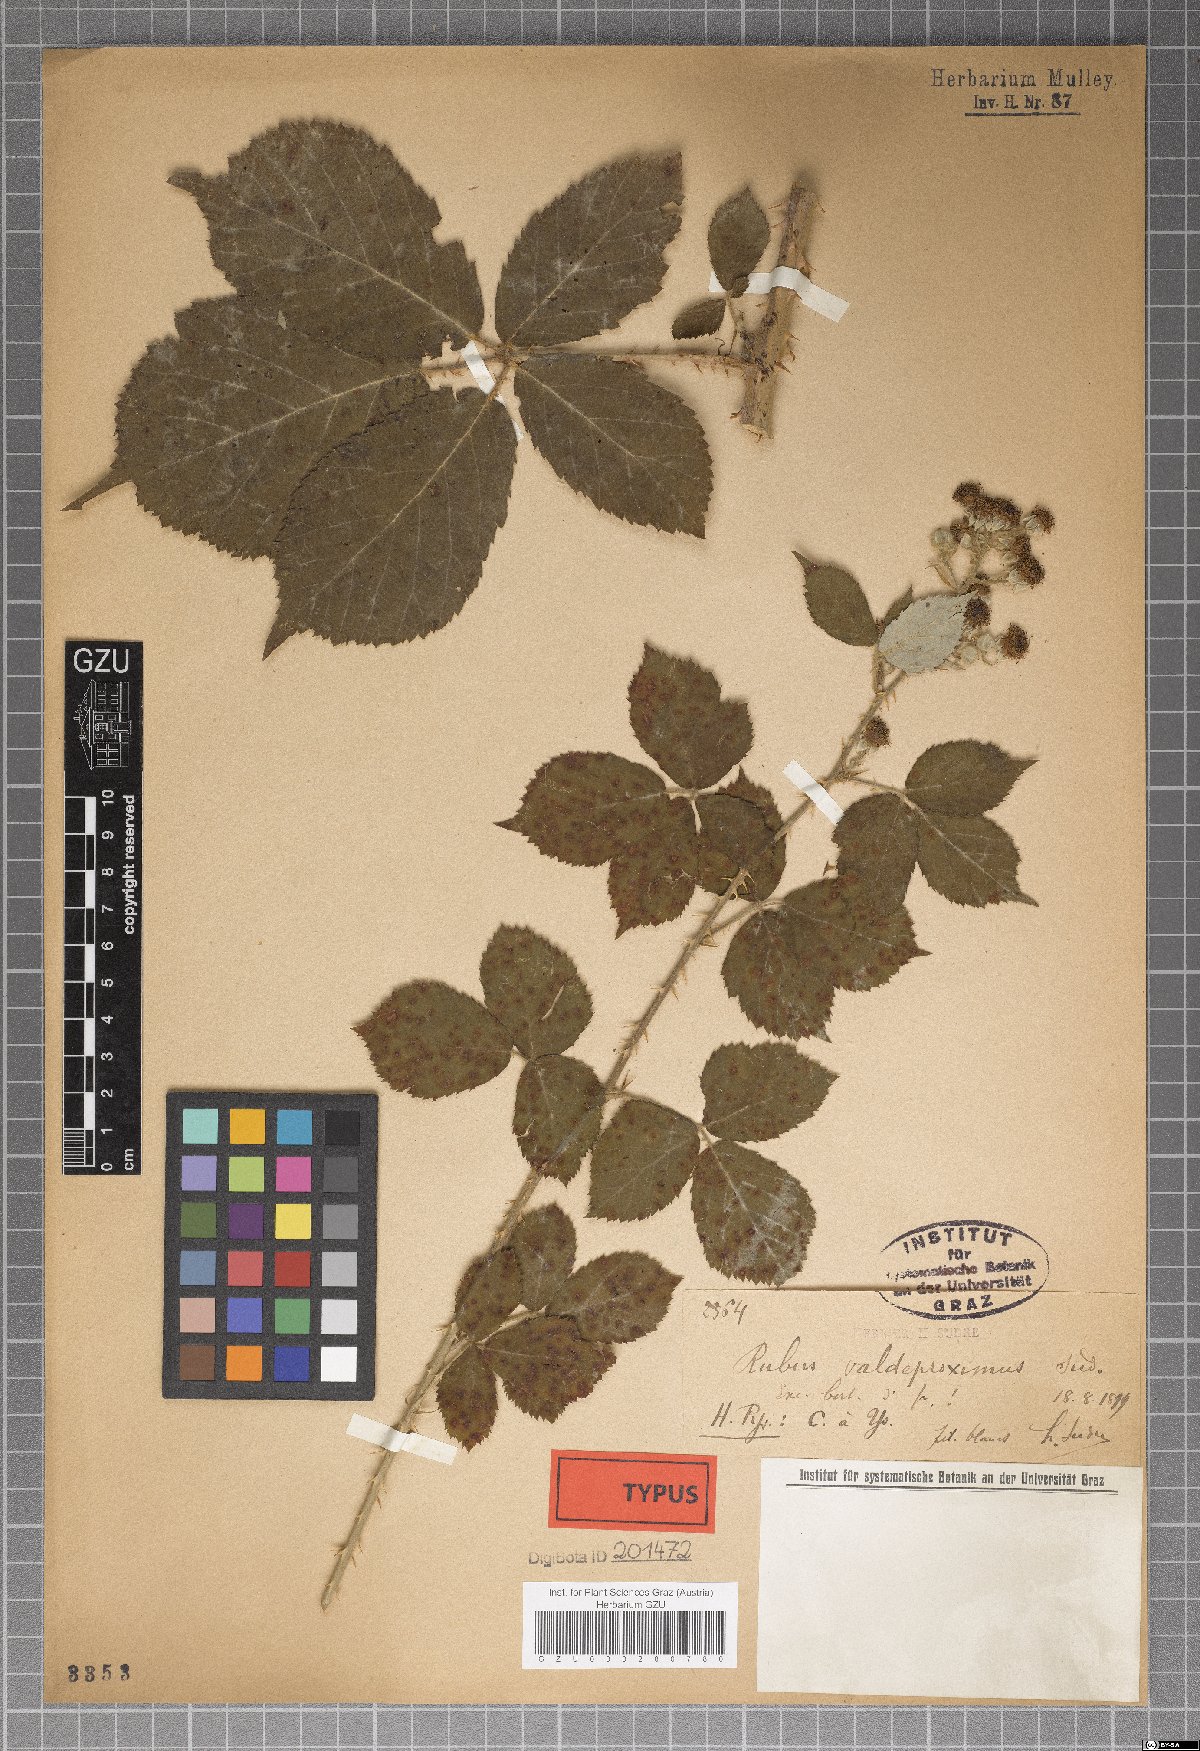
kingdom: Plantae
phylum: Tracheophyta
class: Magnoliopsida
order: Rosales
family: Rosaceae
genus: Rubus
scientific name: Rubus valdeproximus
